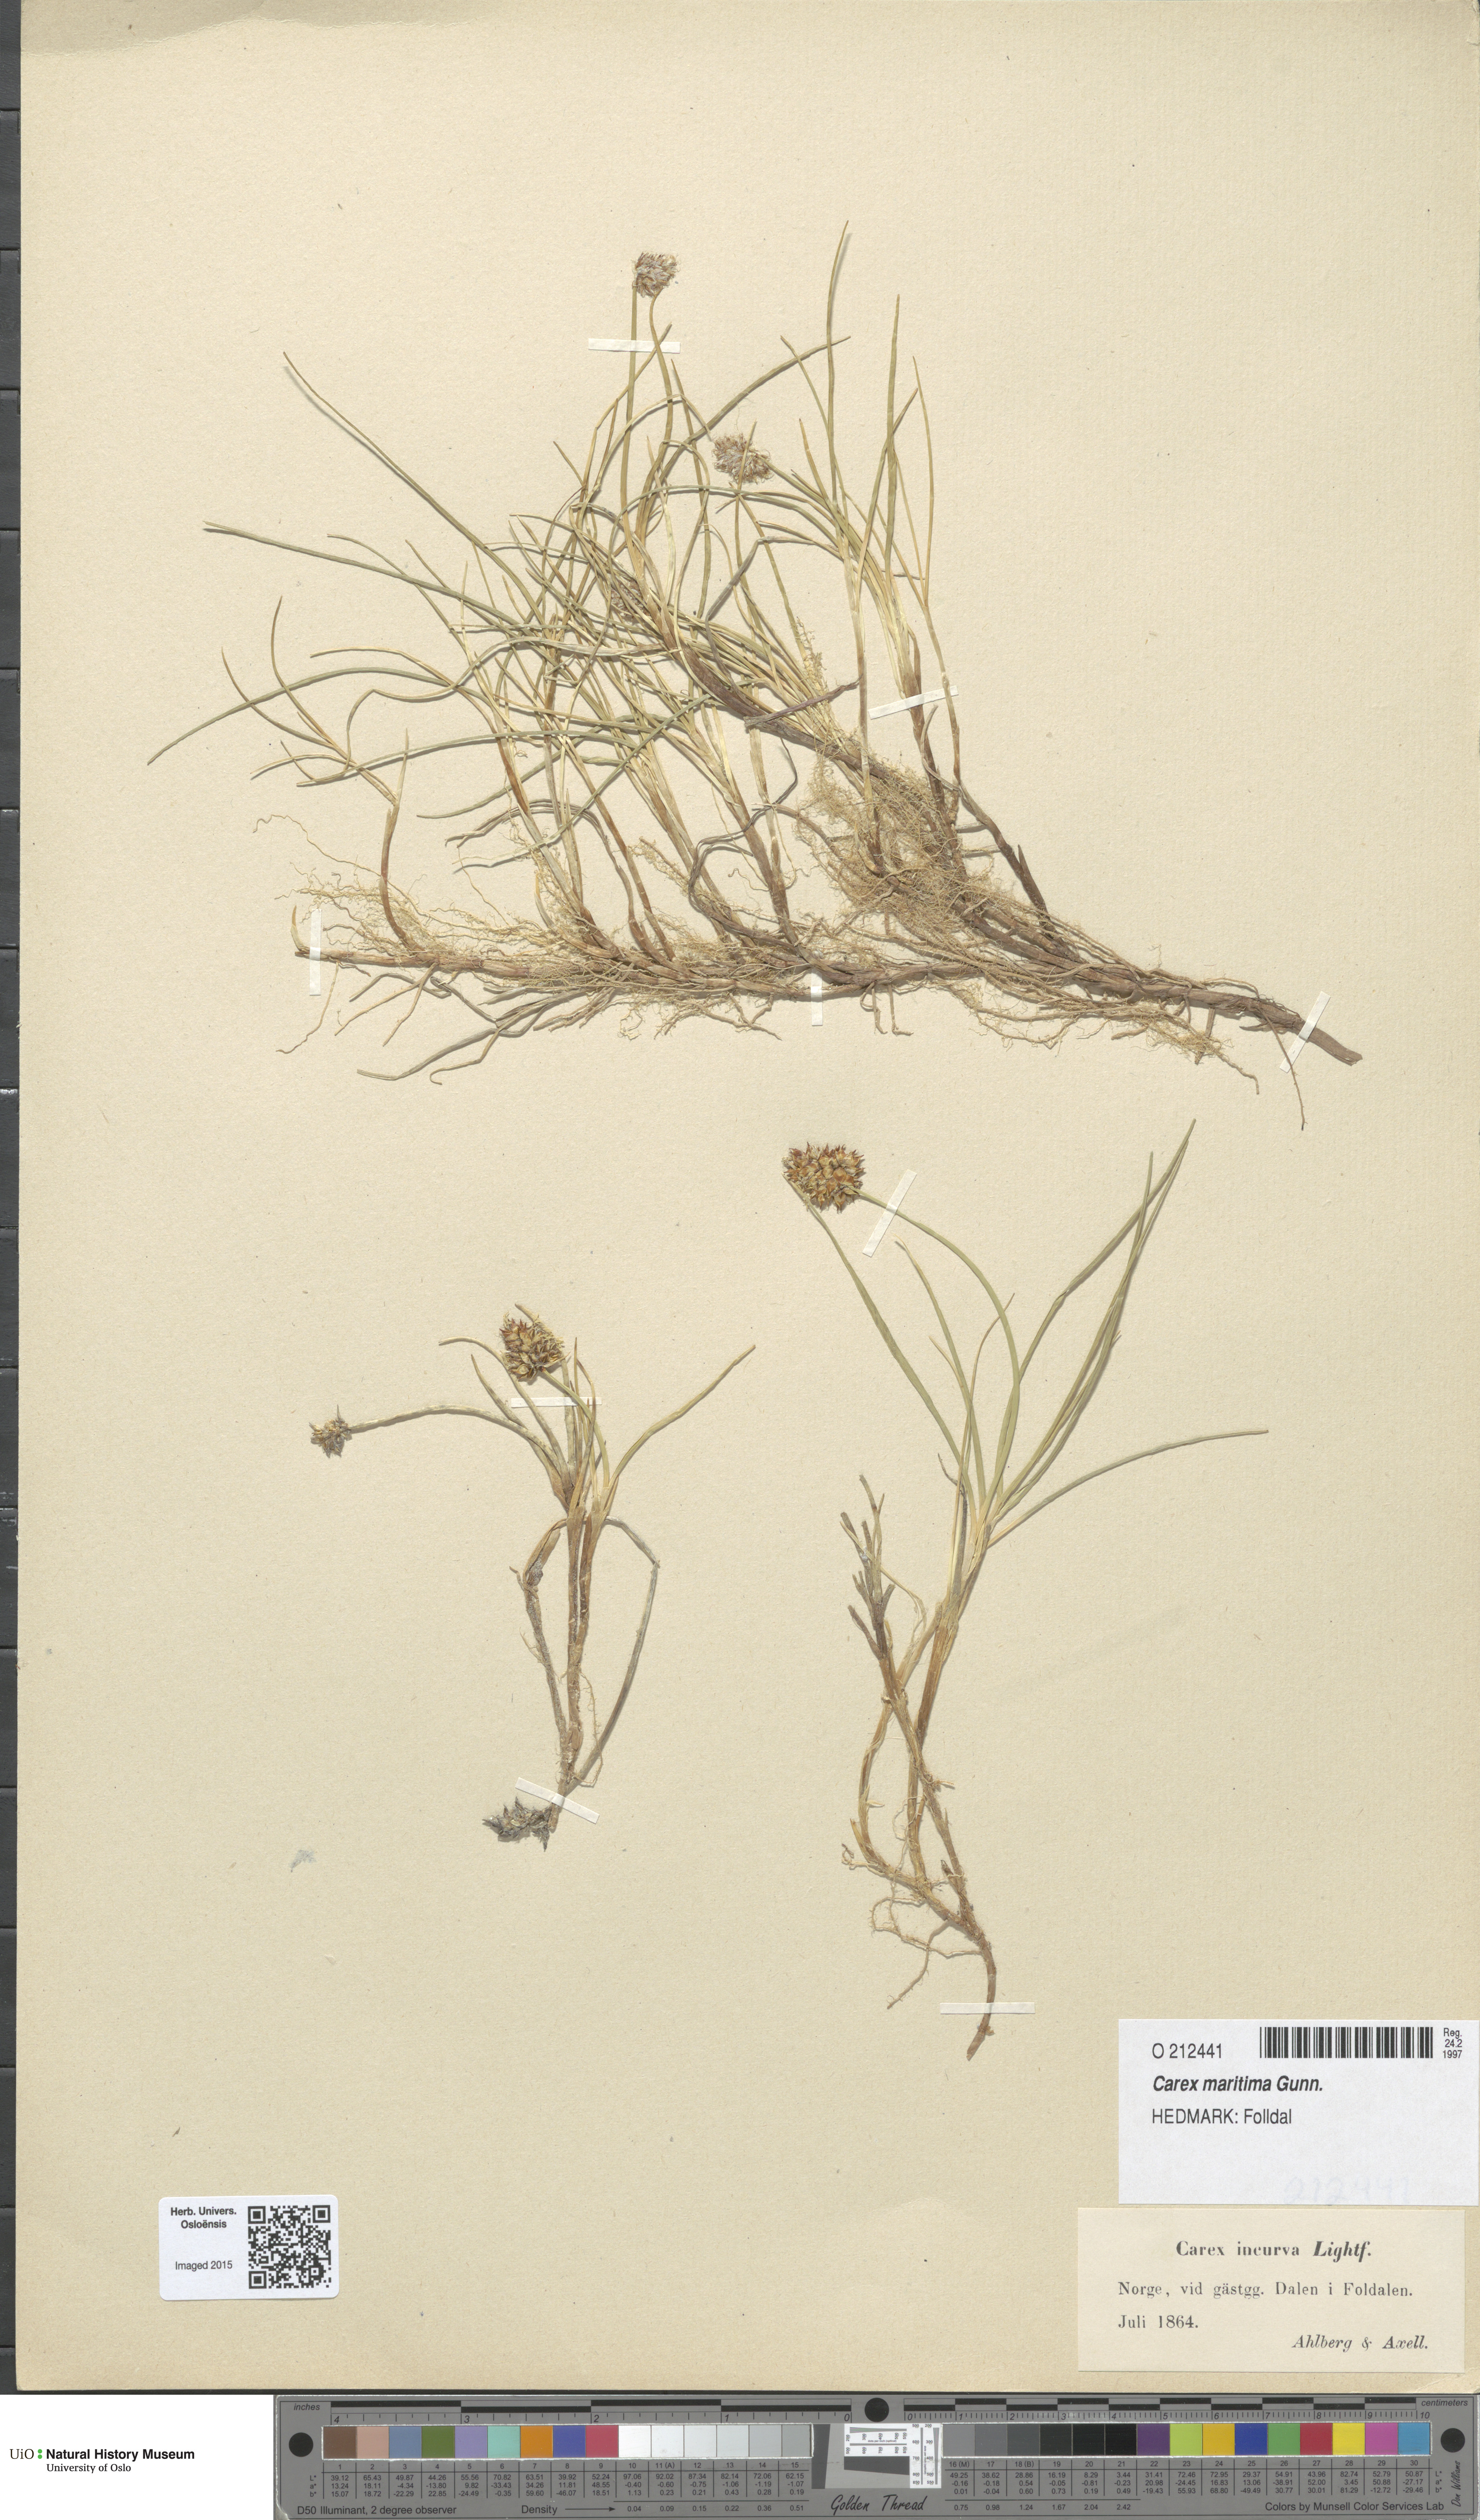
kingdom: Plantae
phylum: Tracheophyta
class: Liliopsida
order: Poales
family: Cyperaceae
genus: Carex
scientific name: Carex maritima
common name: Curved sedge
